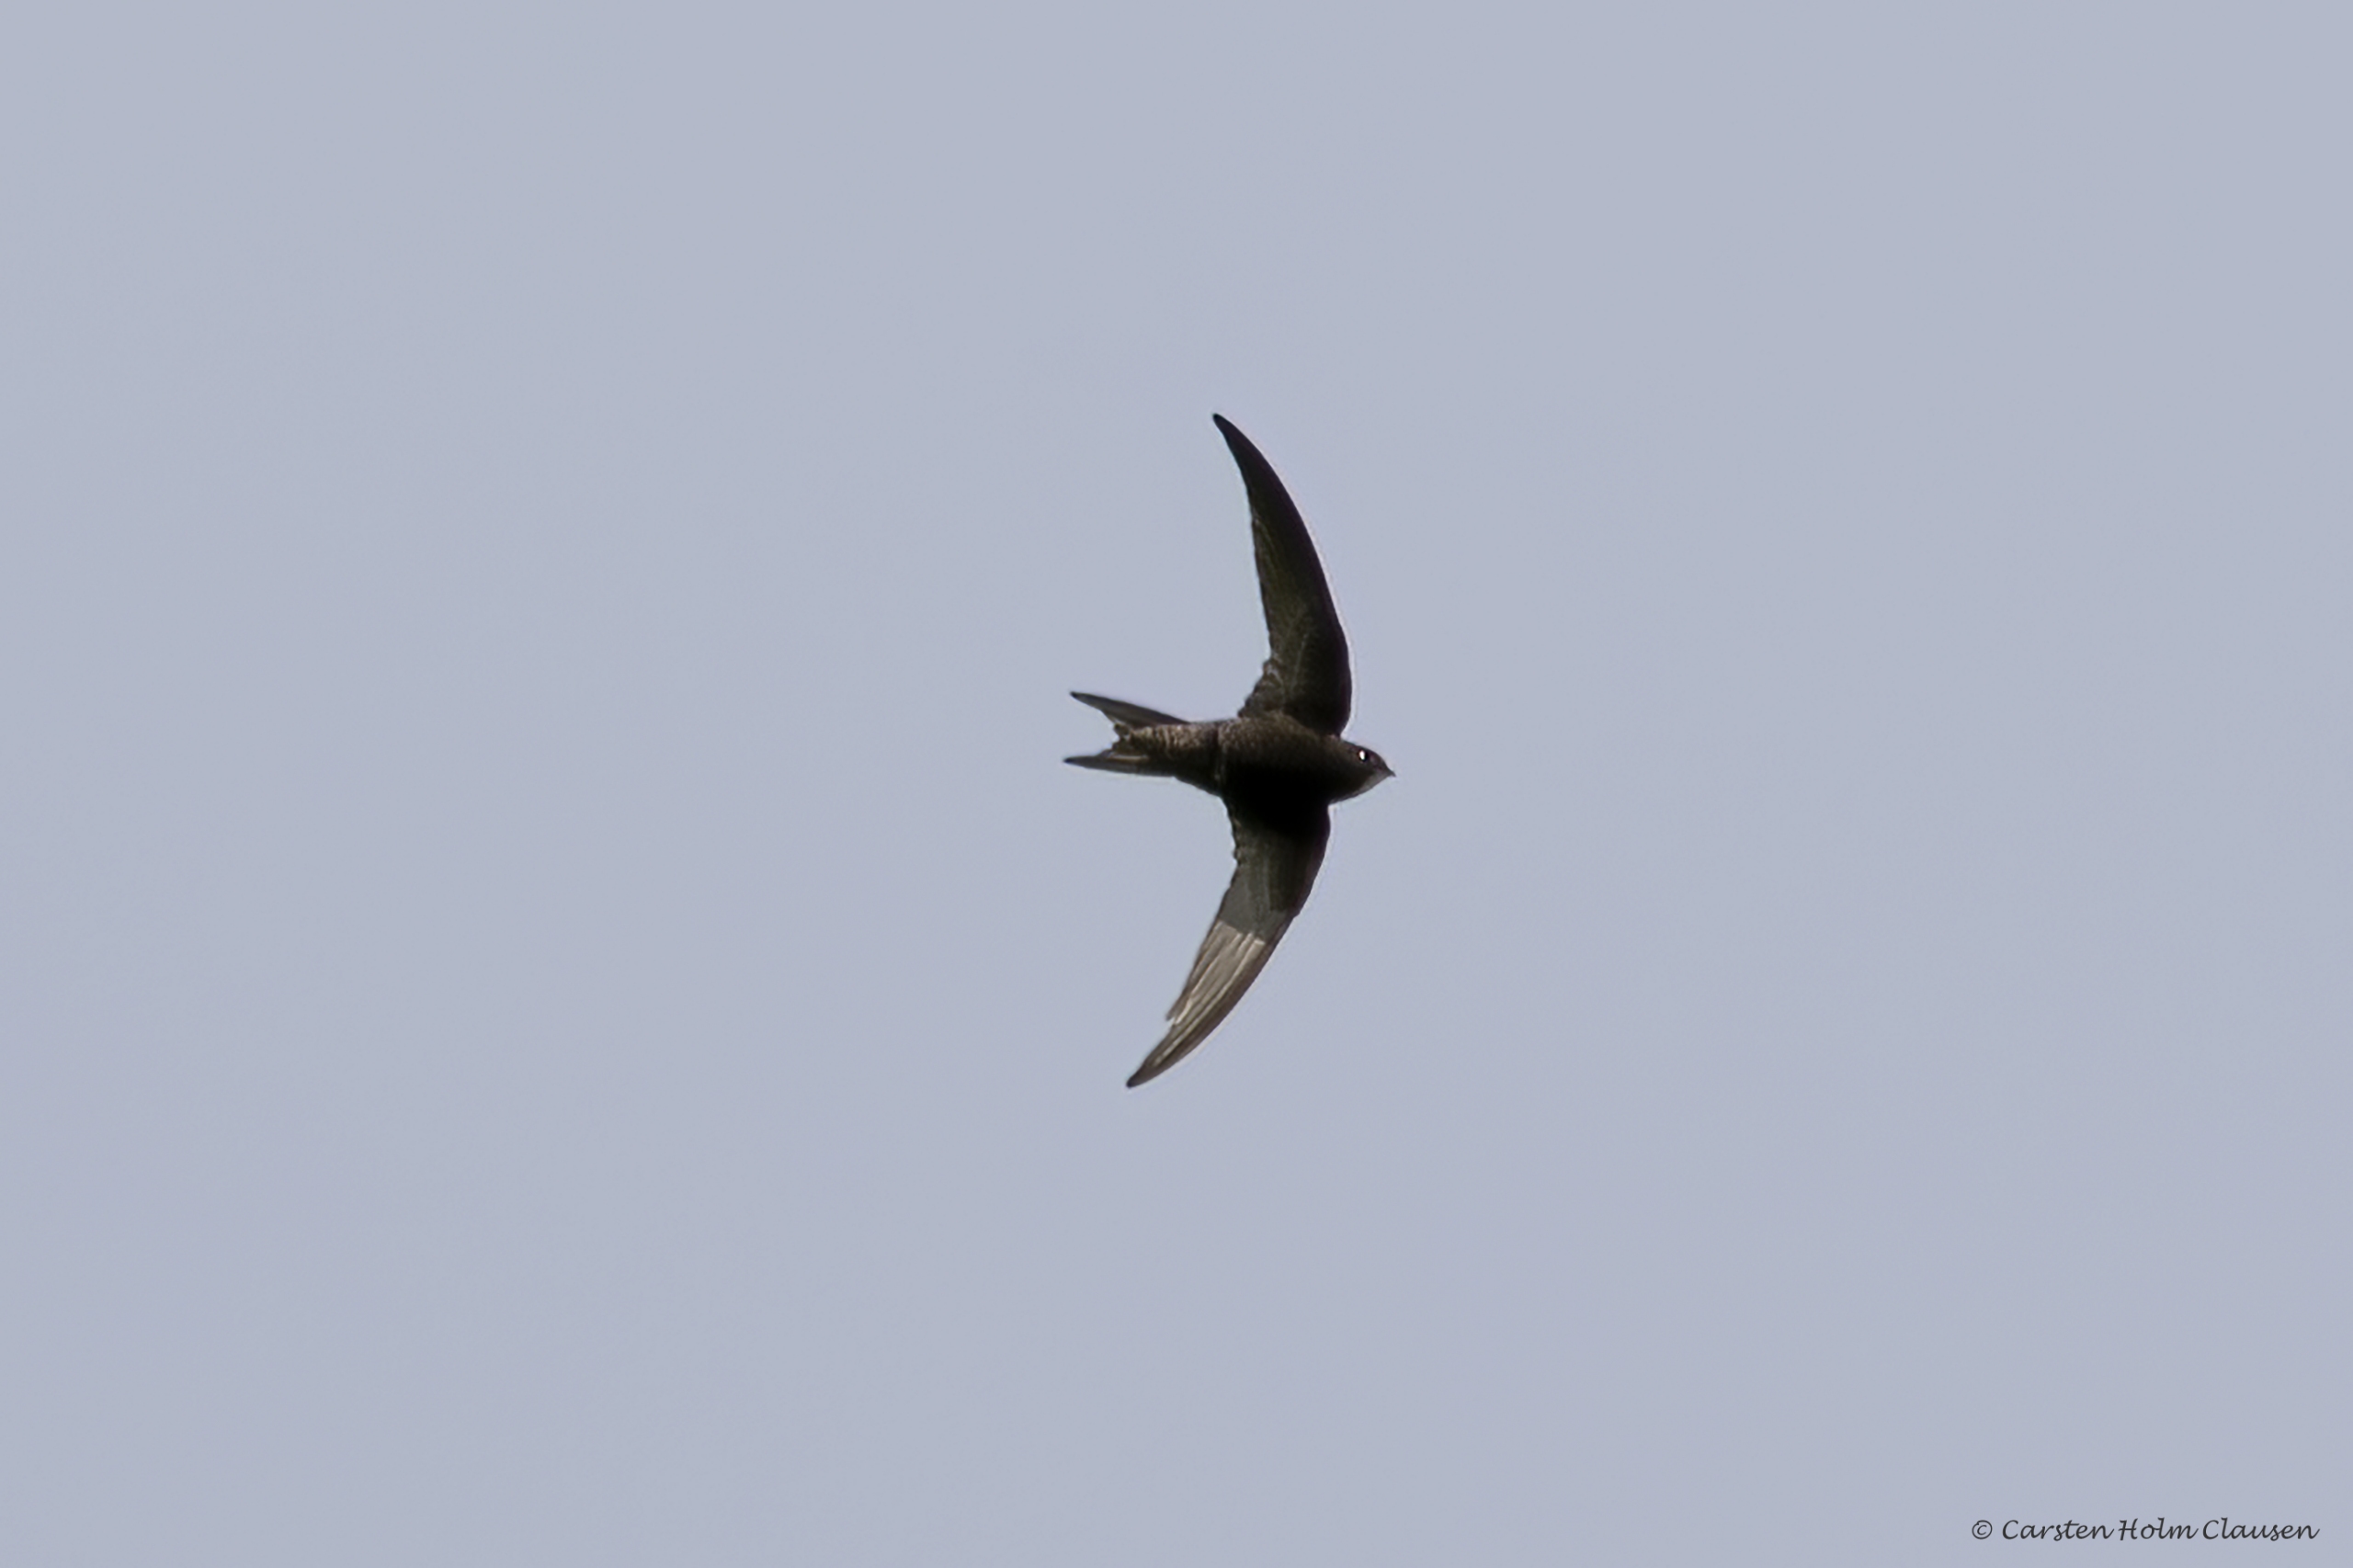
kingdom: Animalia
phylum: Chordata
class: Aves
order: Apodiformes
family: Apodidae
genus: Apus
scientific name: Apus apus
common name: Mursejler
